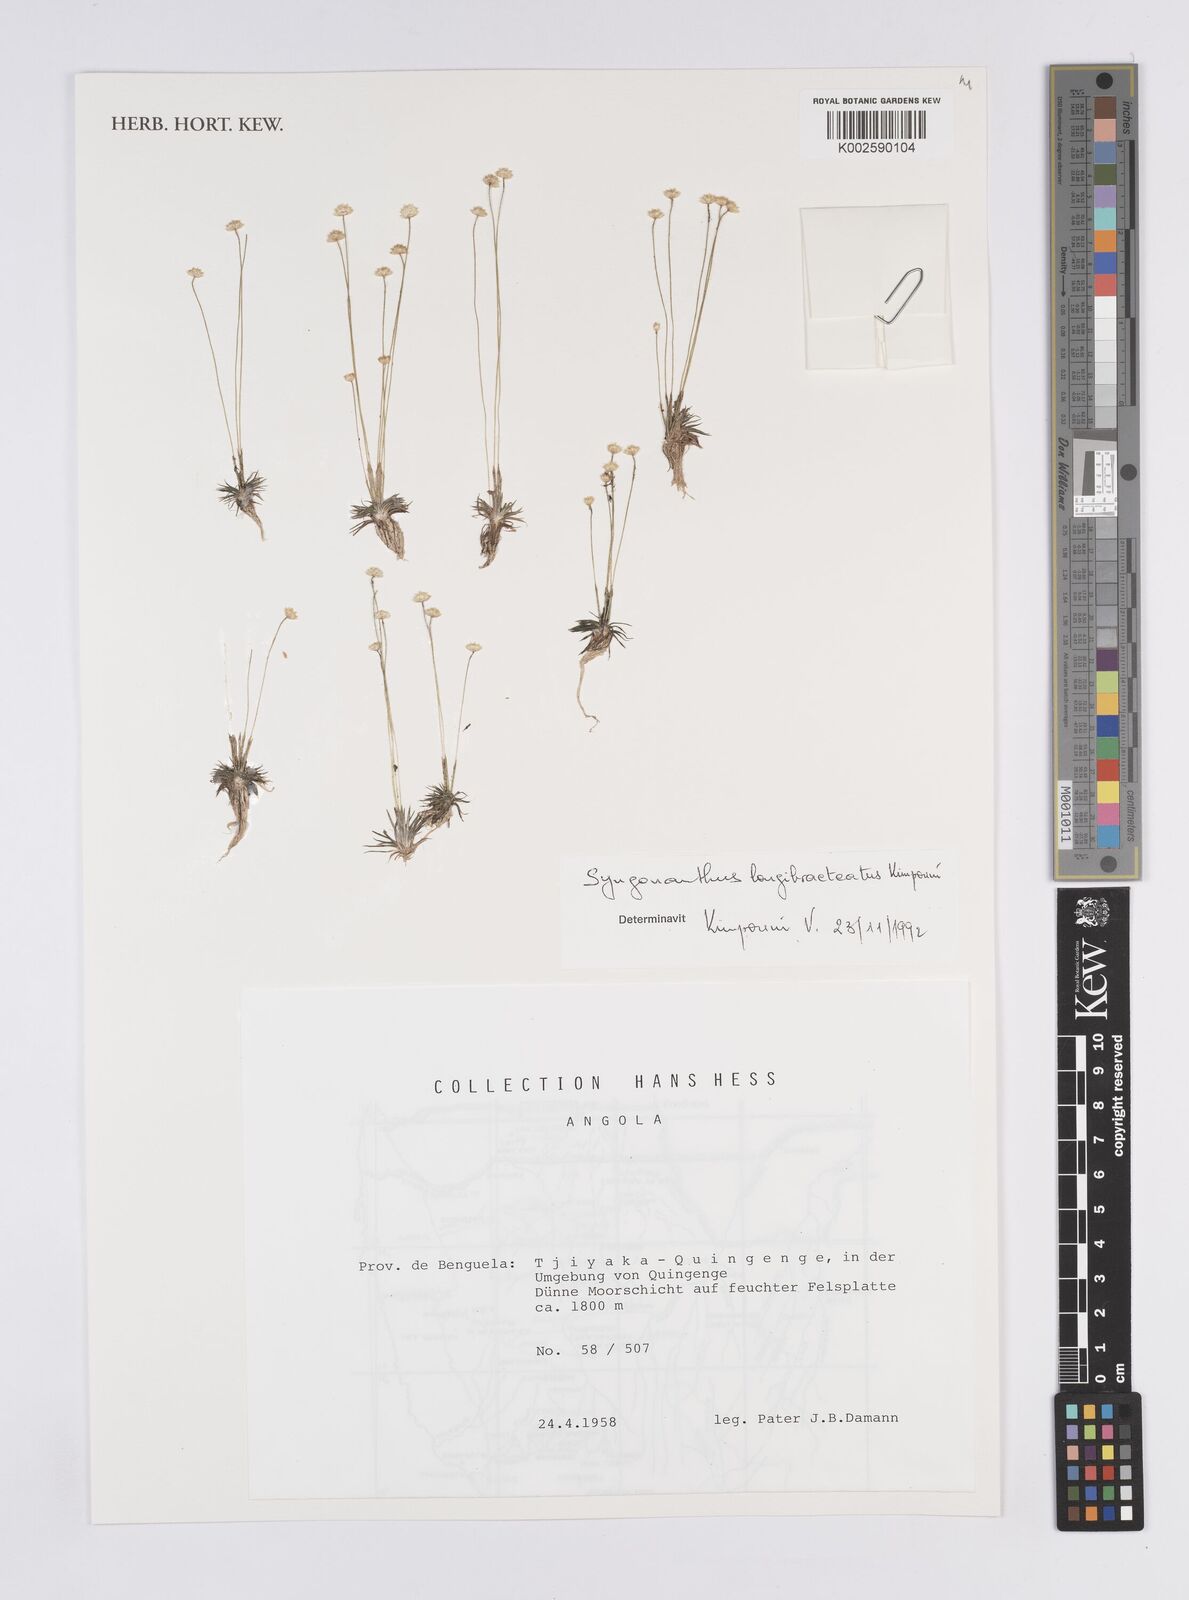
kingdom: Plantae
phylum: Tracheophyta
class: Liliopsida
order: Poales
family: Eriocaulaceae
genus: Syngonanthus
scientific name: Syngonanthus longibracteatus
